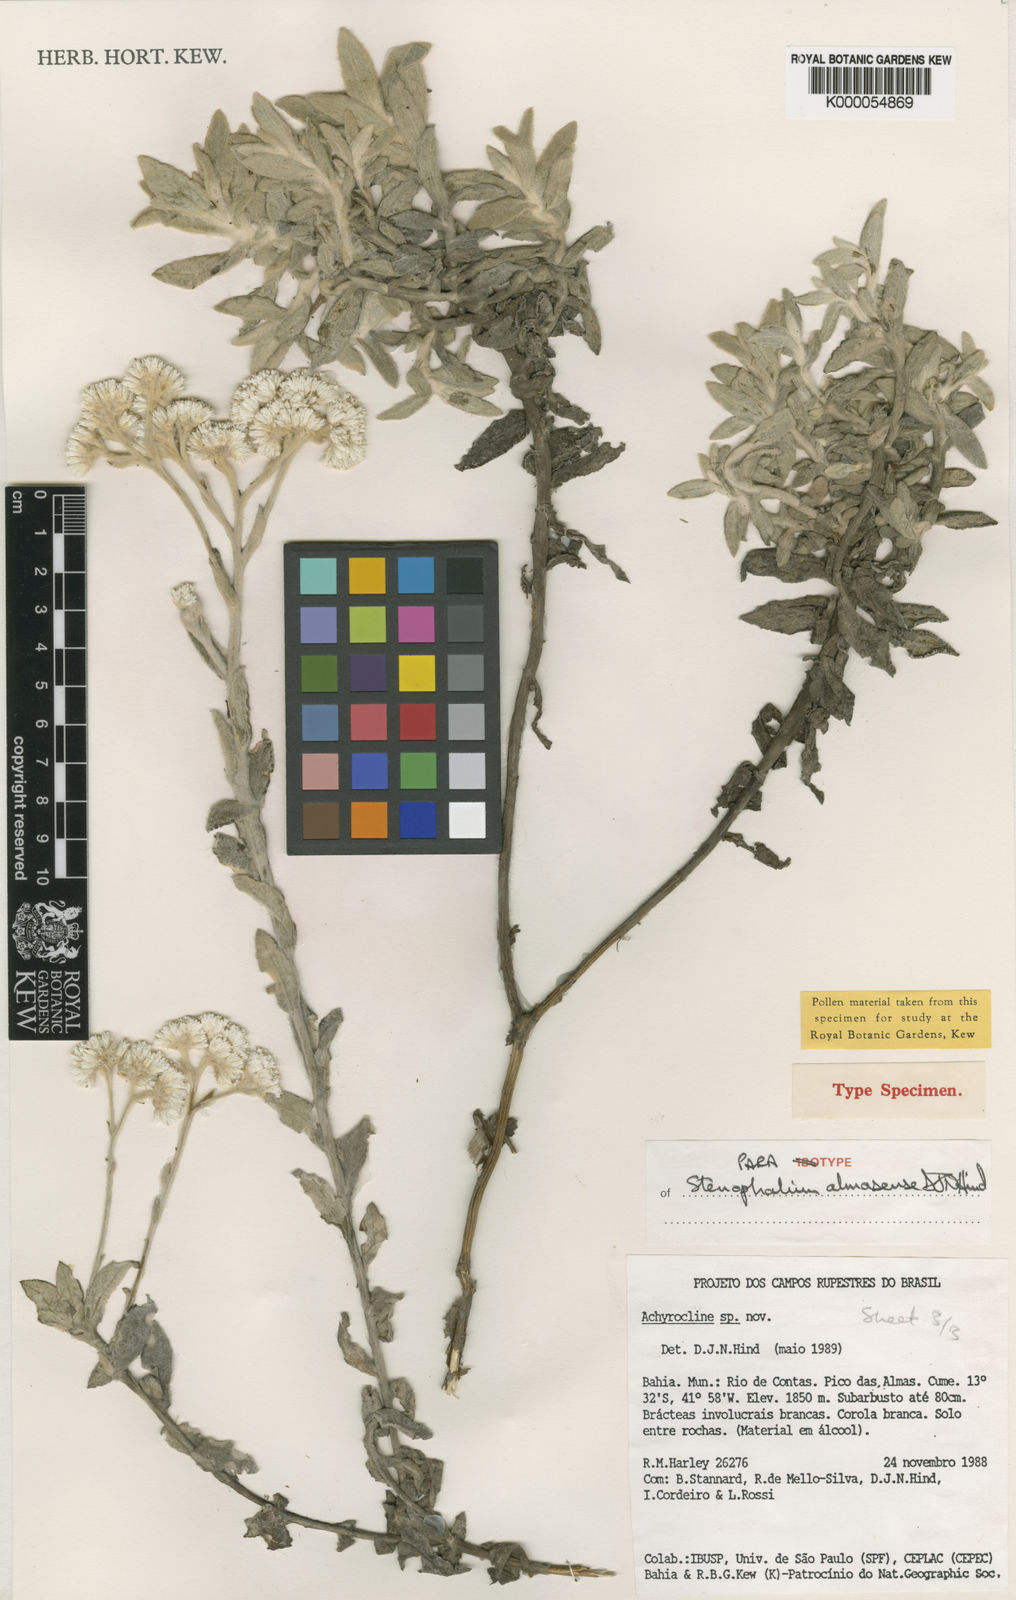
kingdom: Plantae
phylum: Tracheophyta
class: Magnoliopsida
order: Asterales
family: Asteraceae
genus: Achyrocline
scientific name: Achyrocline eriodes
